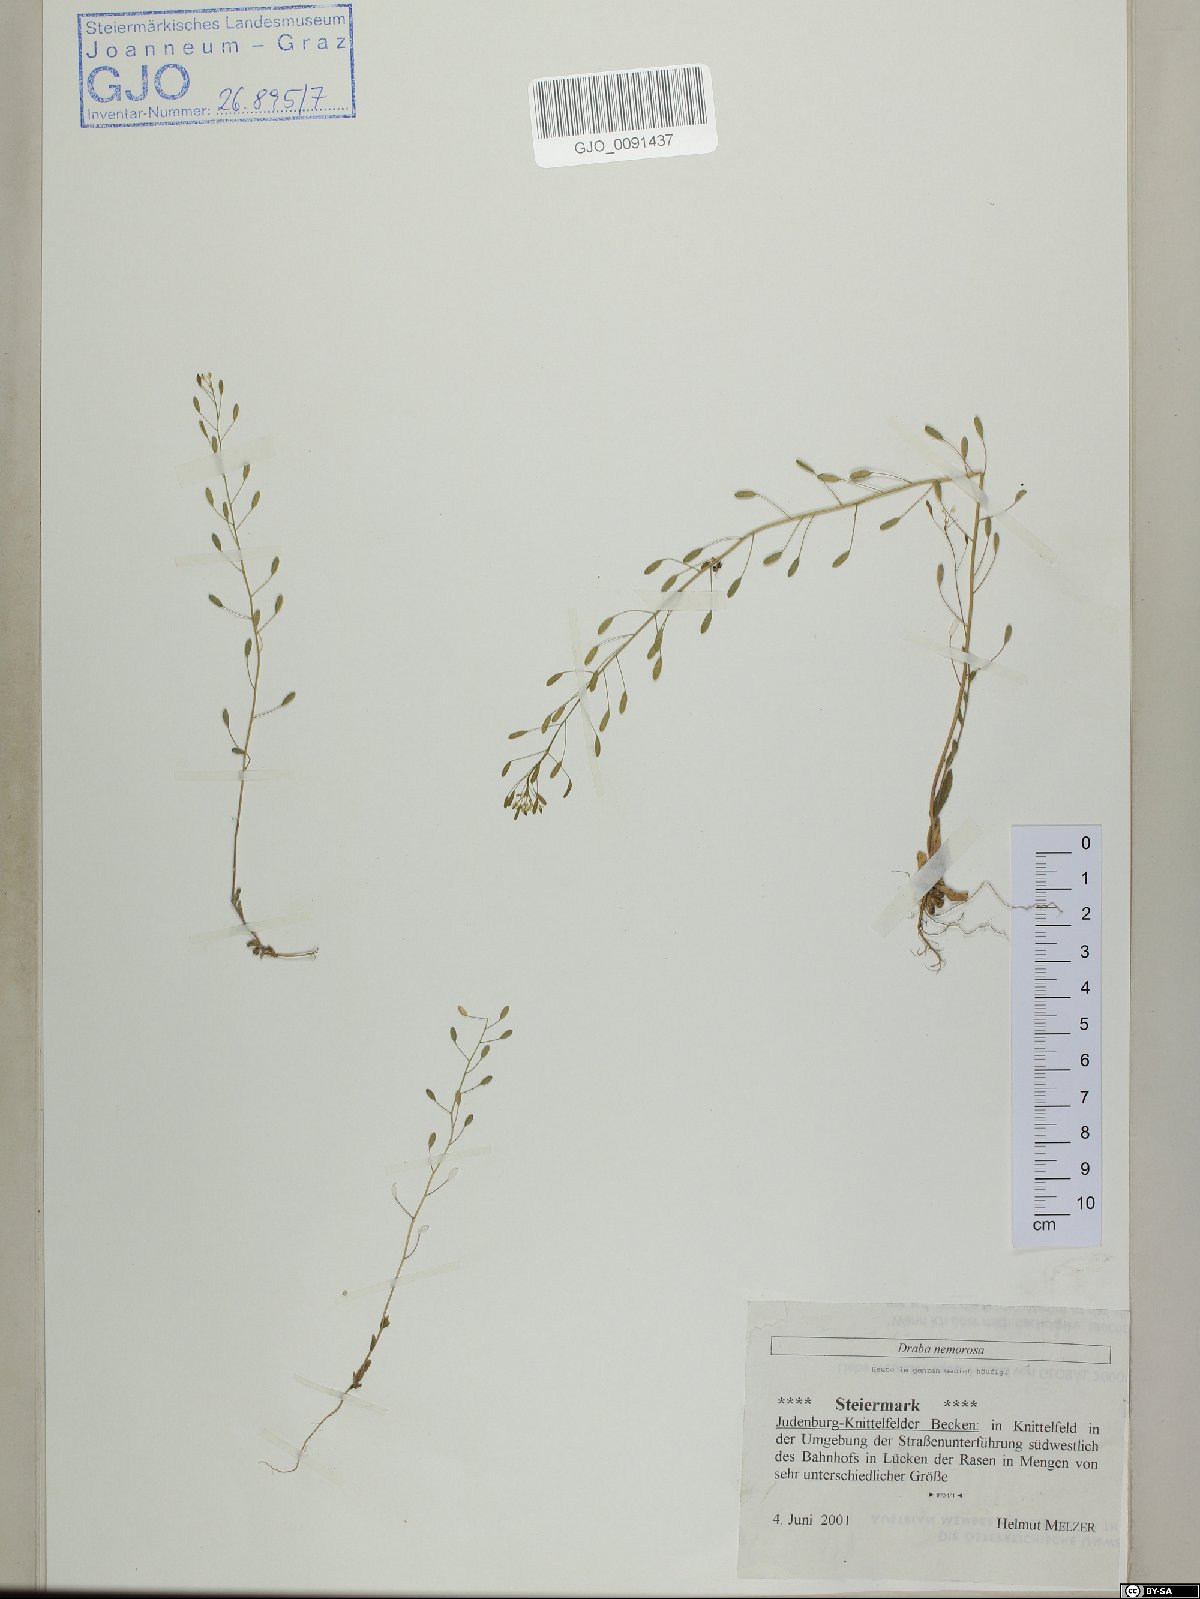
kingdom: Plantae
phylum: Tracheophyta
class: Magnoliopsida
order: Brassicales
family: Brassicaceae
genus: Draba
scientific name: Draba nemorosa
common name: Wood whitlow-grass
